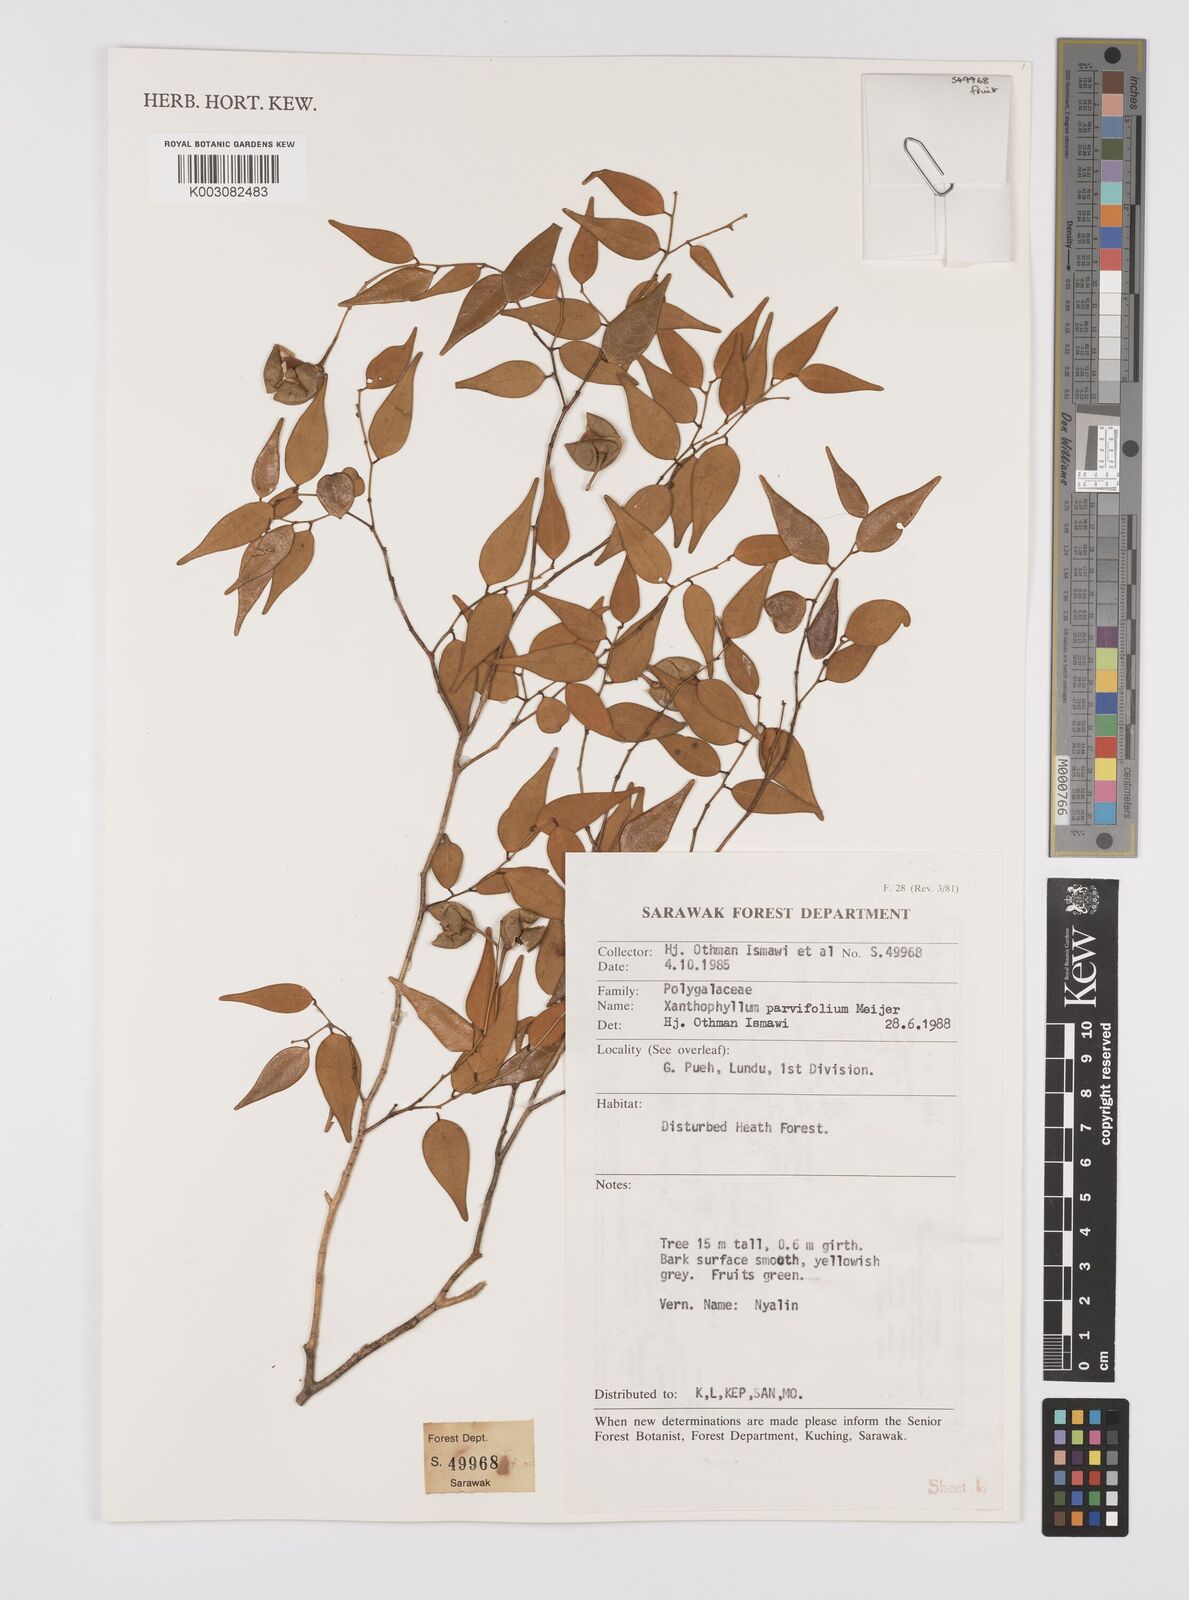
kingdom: Plantae
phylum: Tracheophyta
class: Magnoliopsida
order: Fabales
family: Polygalaceae
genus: Xanthophyllum
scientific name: Xanthophyllum parvifolium
